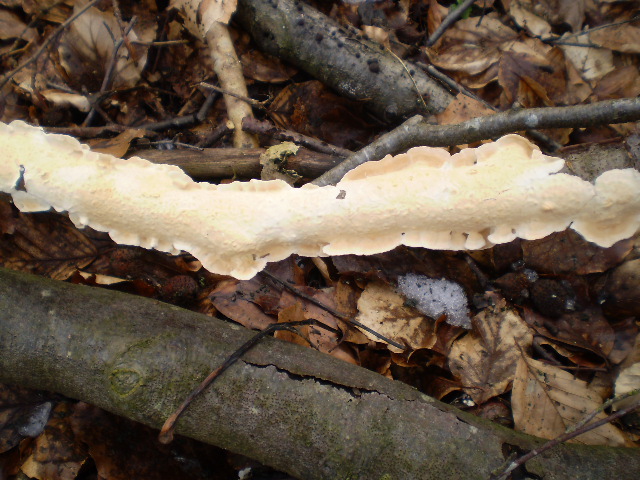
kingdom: Fungi
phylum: Basidiomycota
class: Agaricomycetes
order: Polyporales
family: Irpicaceae
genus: Byssomerulius
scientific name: Byssomerulius corium
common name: læder-åresvamp
